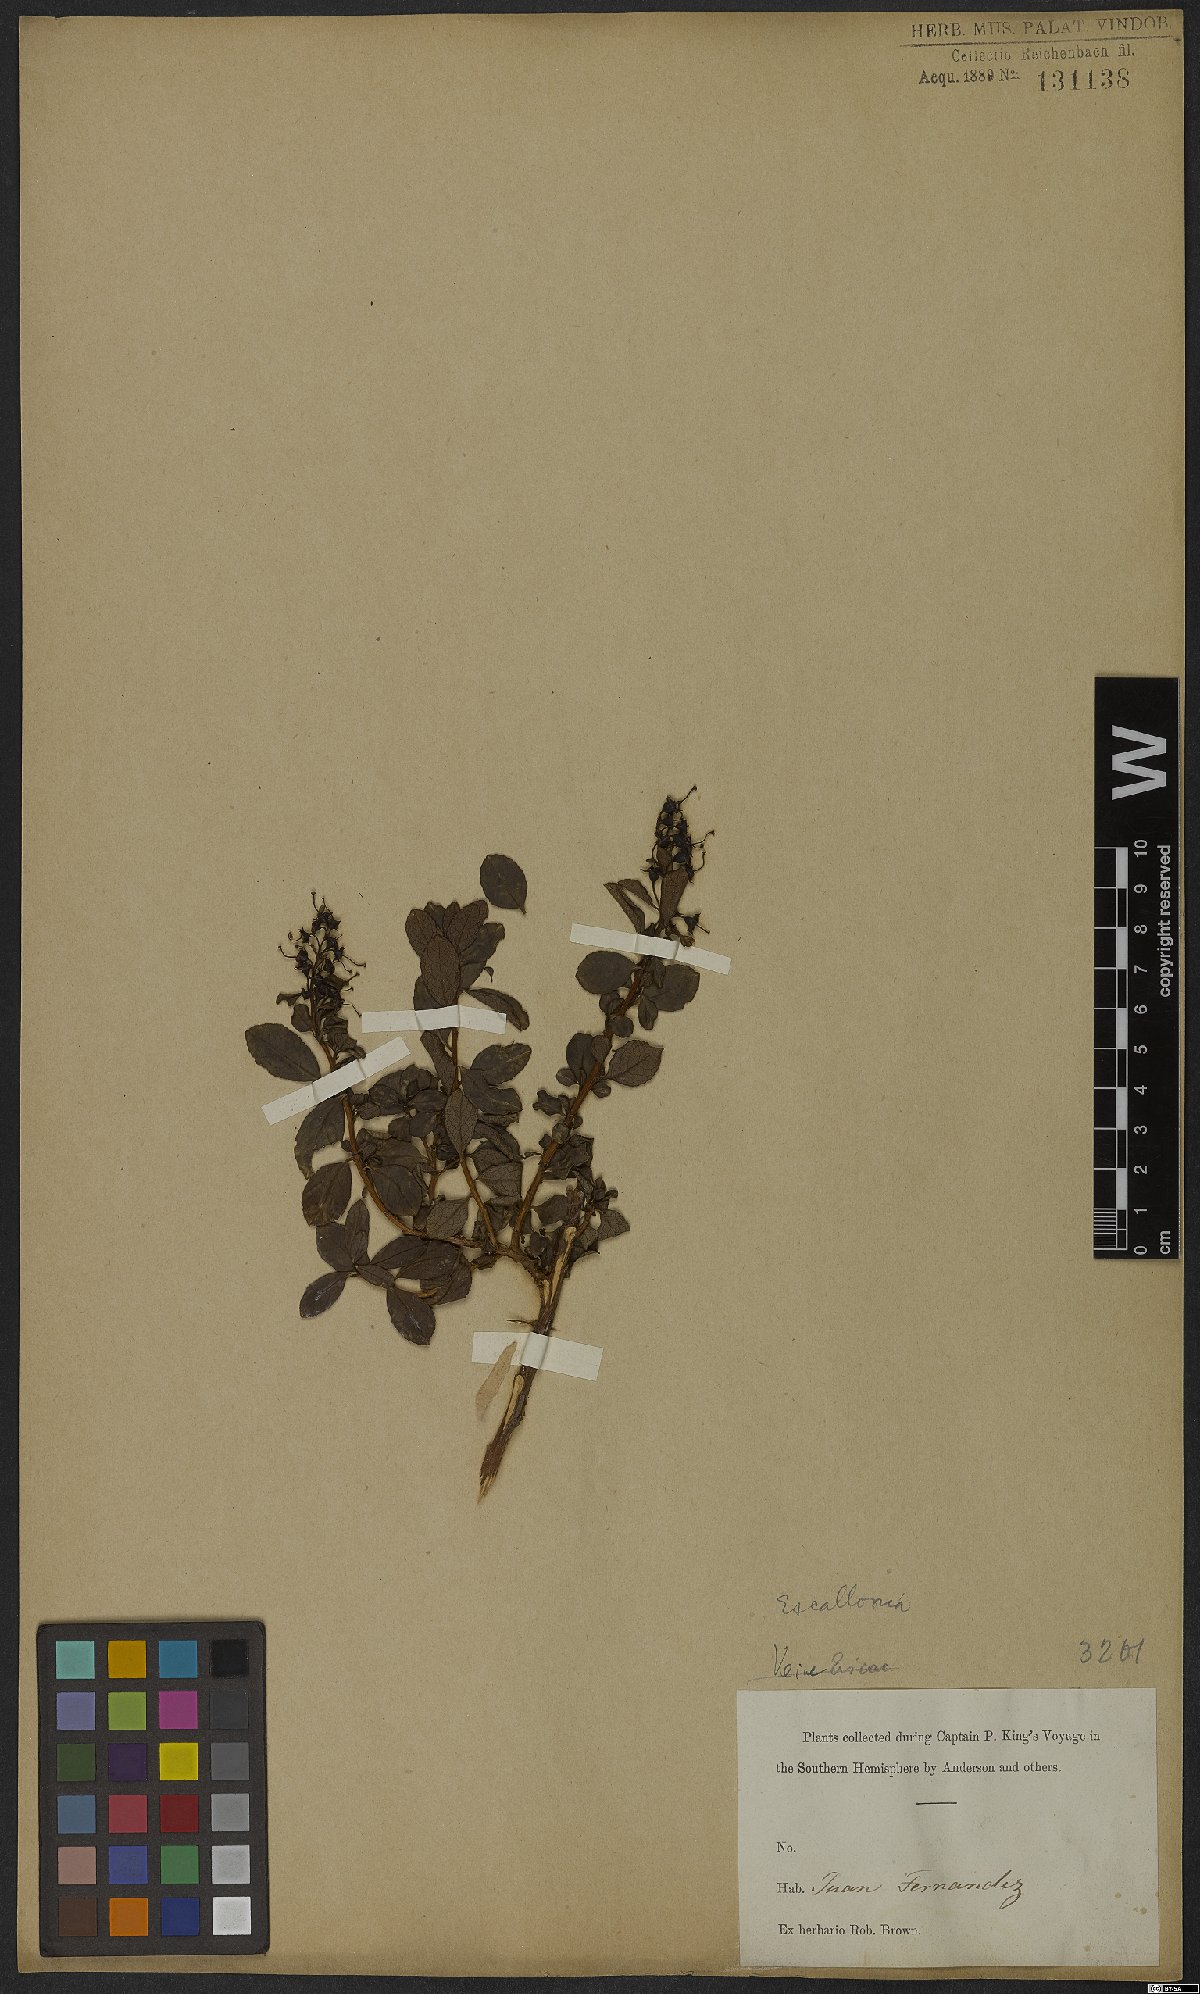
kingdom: Plantae
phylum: Tracheophyta
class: Magnoliopsida
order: Escalloniales
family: Escalloniaceae
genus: Escallonia
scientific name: Escallonia
